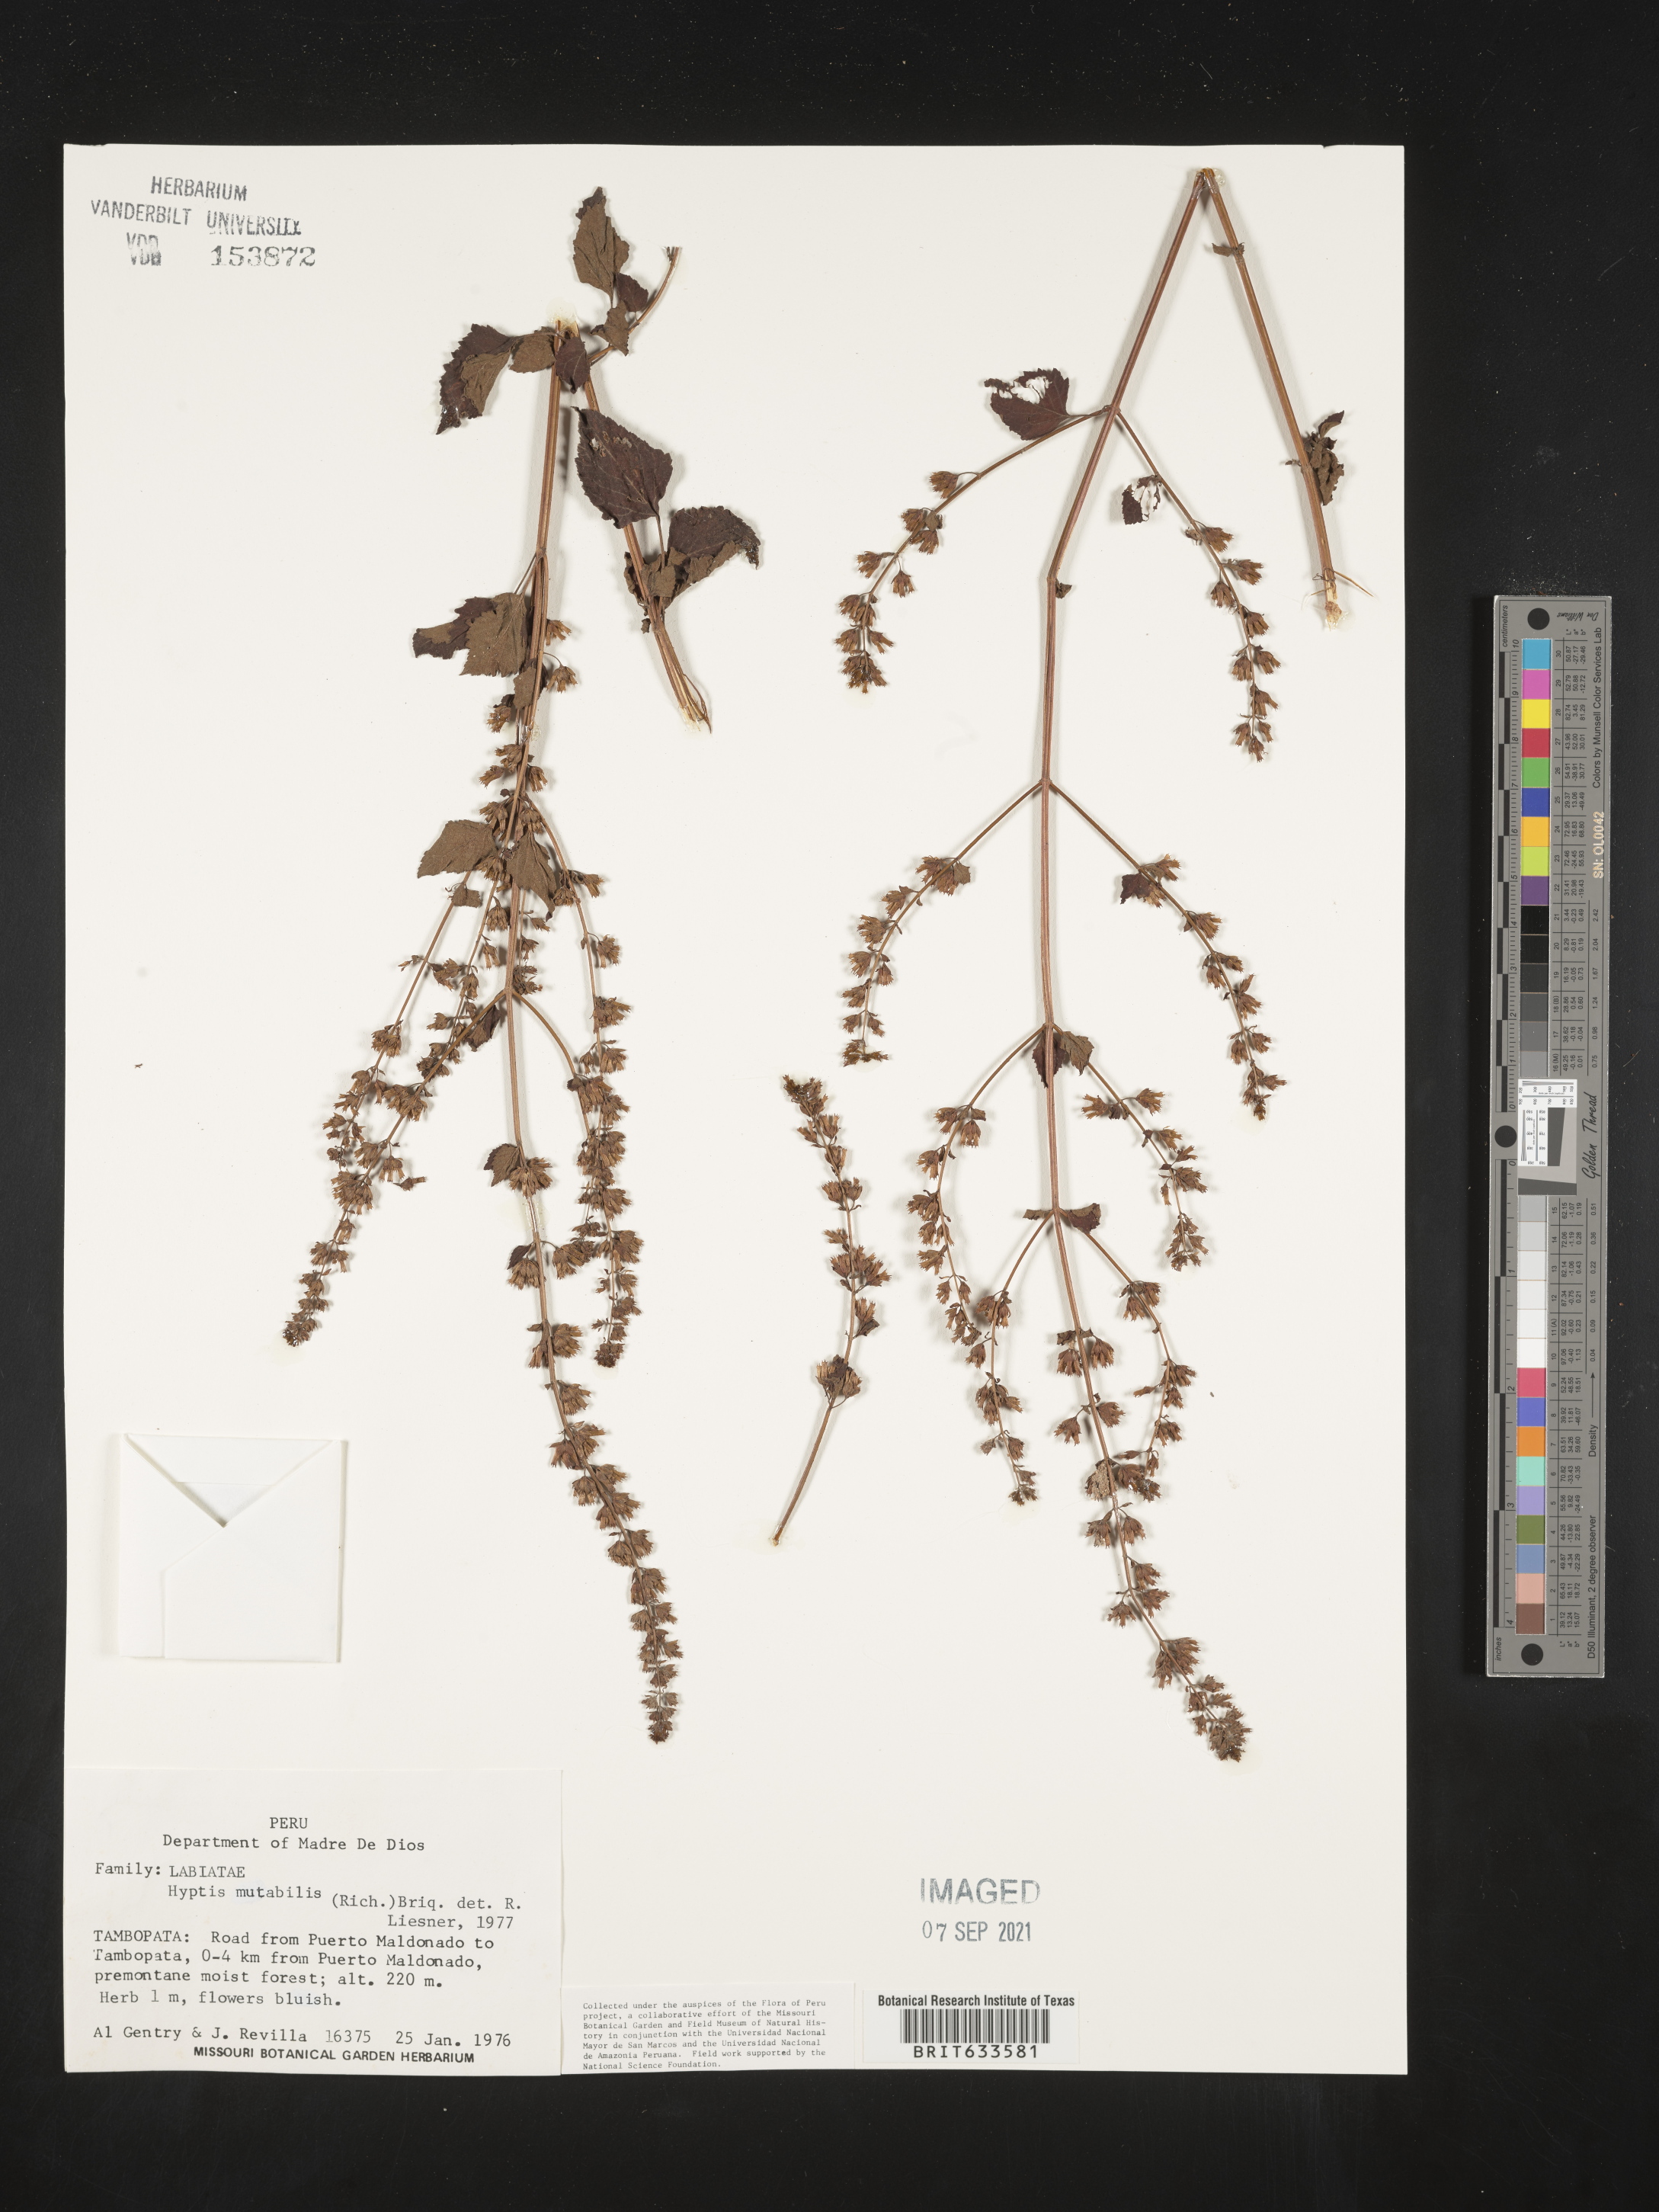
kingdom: Plantae
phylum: Tracheophyta
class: Magnoliopsida
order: Lamiales
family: Lamiaceae
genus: Hyptis
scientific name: Hyptis
